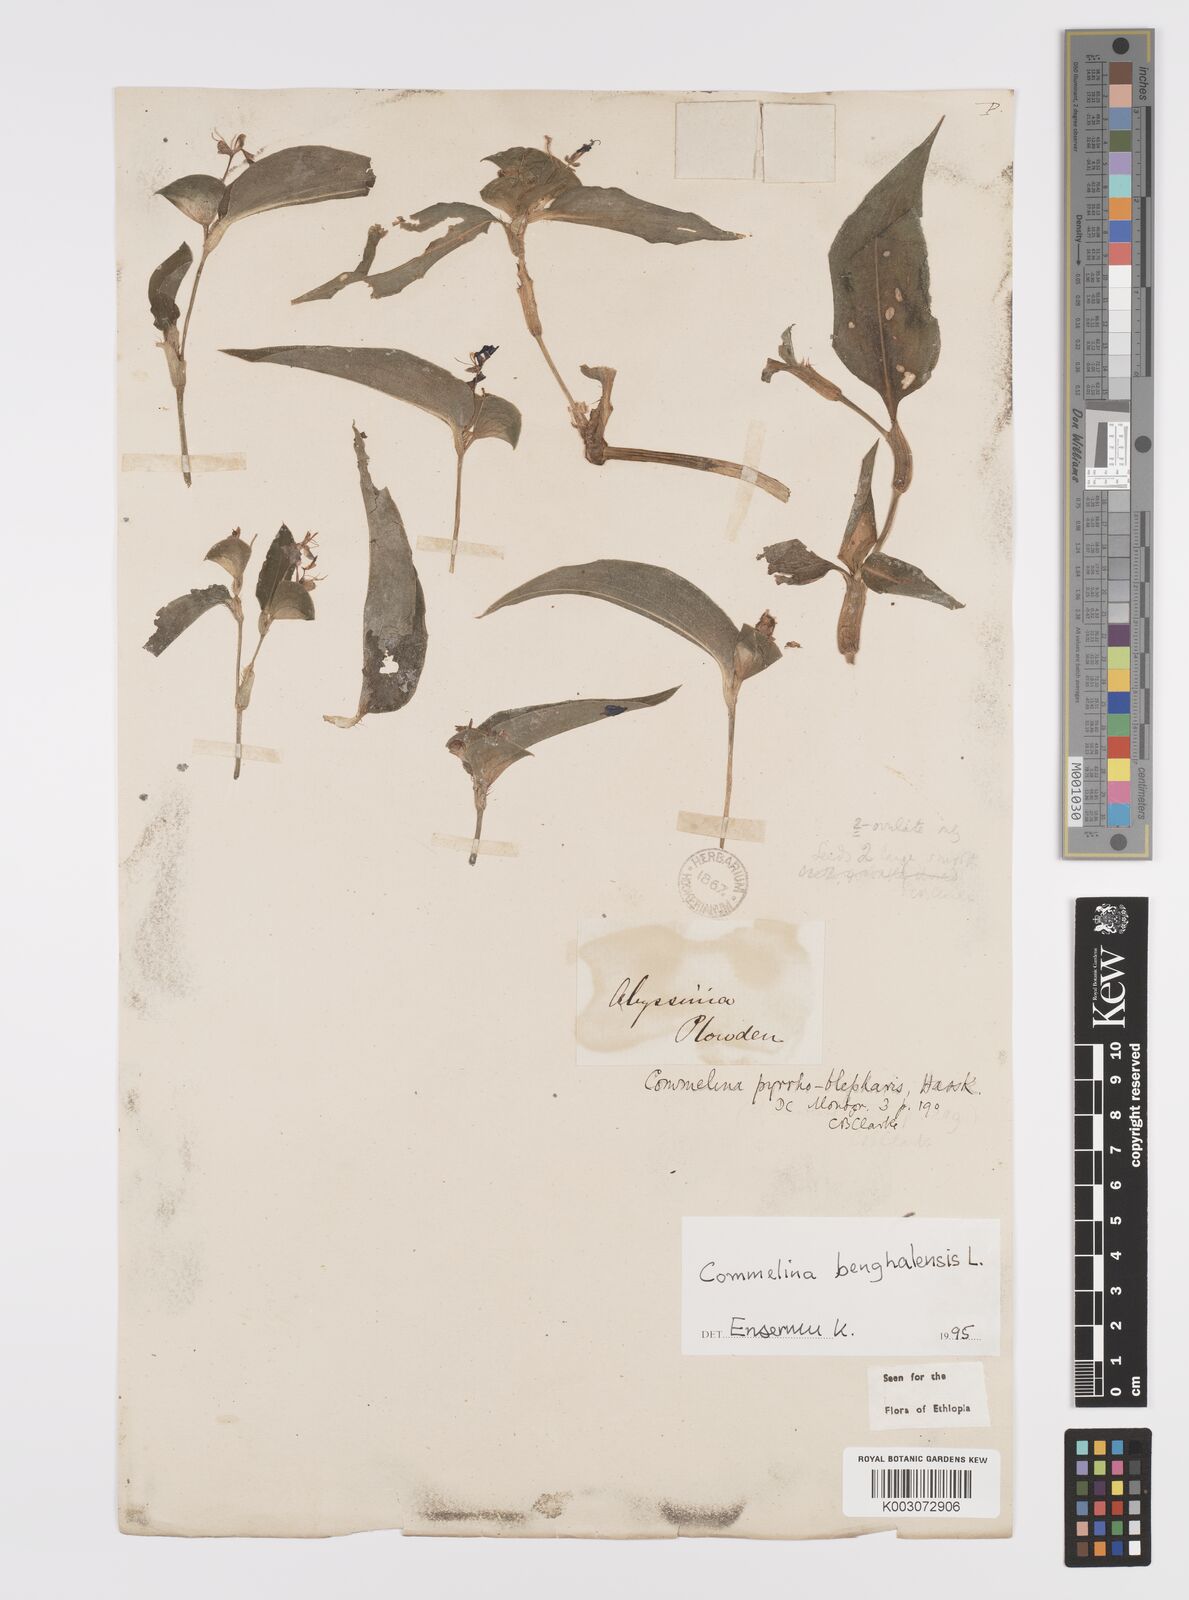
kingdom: Plantae
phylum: Tracheophyta
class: Liliopsida
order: Commelinales
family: Commelinaceae
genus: Commelina
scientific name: Commelina benghalensis
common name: Jio
